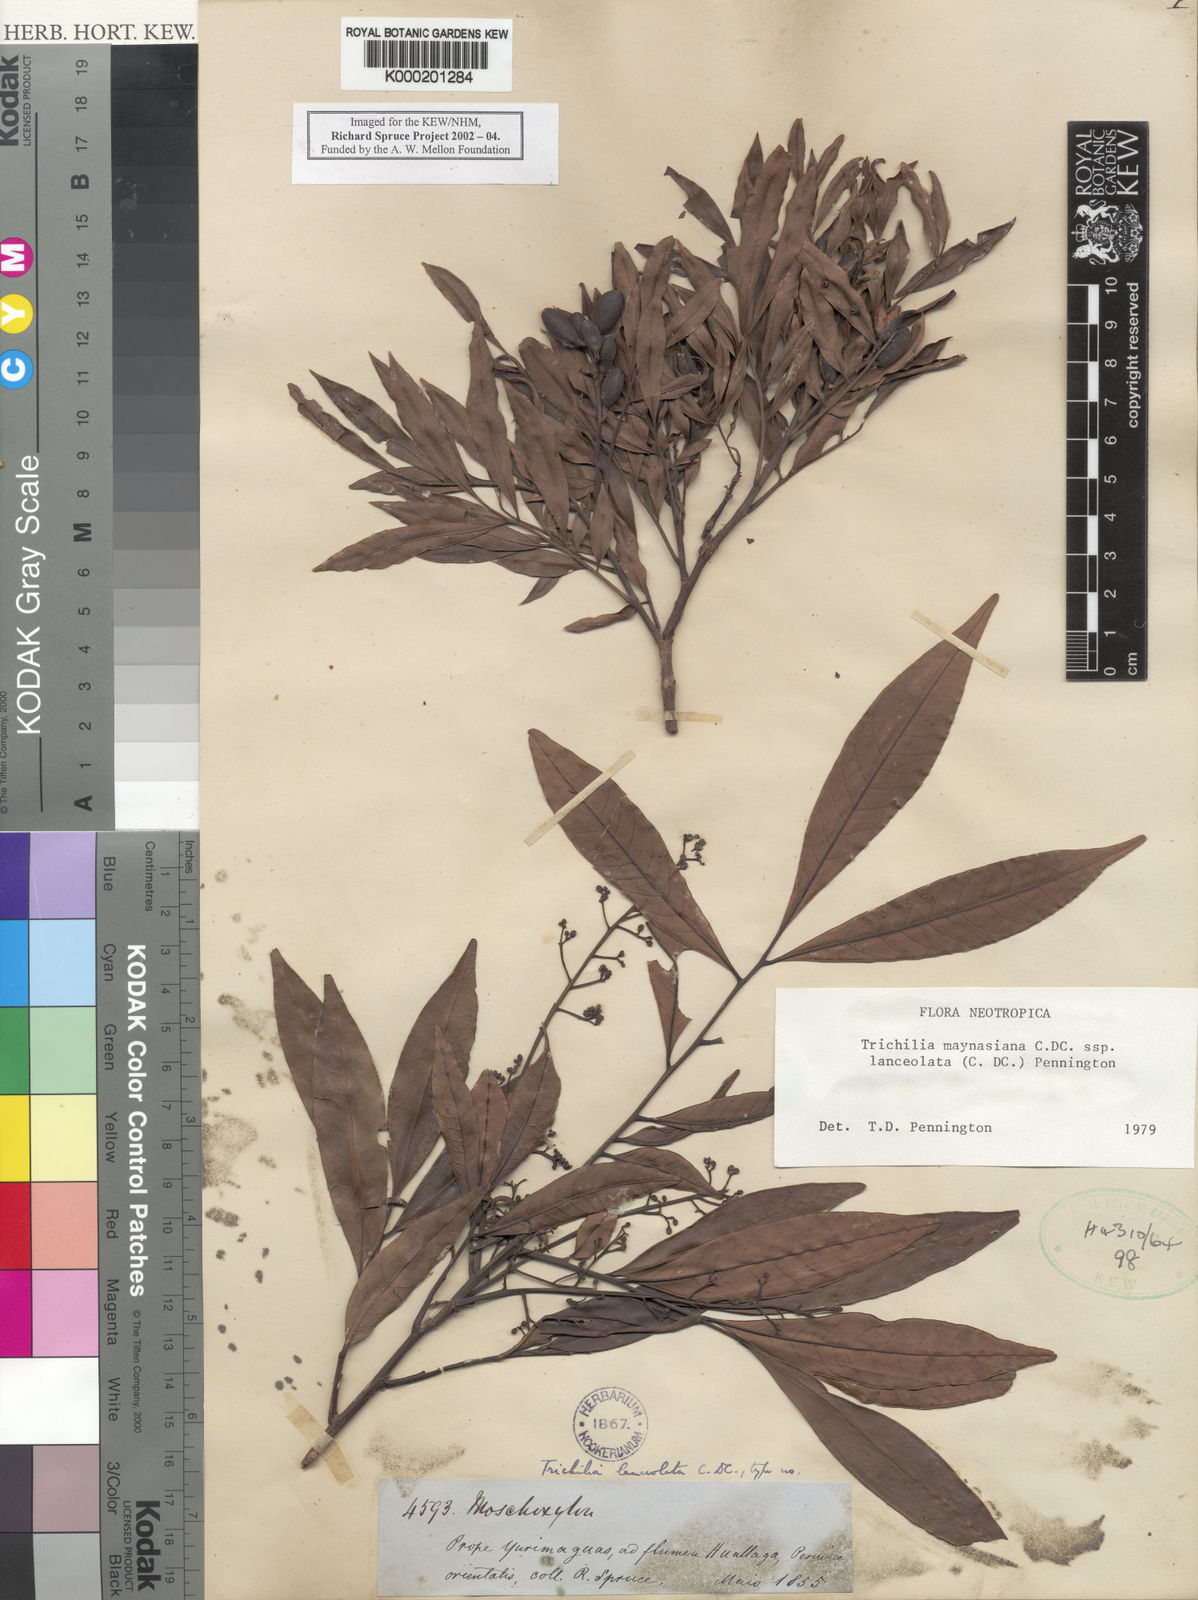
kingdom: Plantae
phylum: Tracheophyta
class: Magnoliopsida
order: Sapindales
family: Meliaceae
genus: Trichilia
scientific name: Trichilia maynasiana
